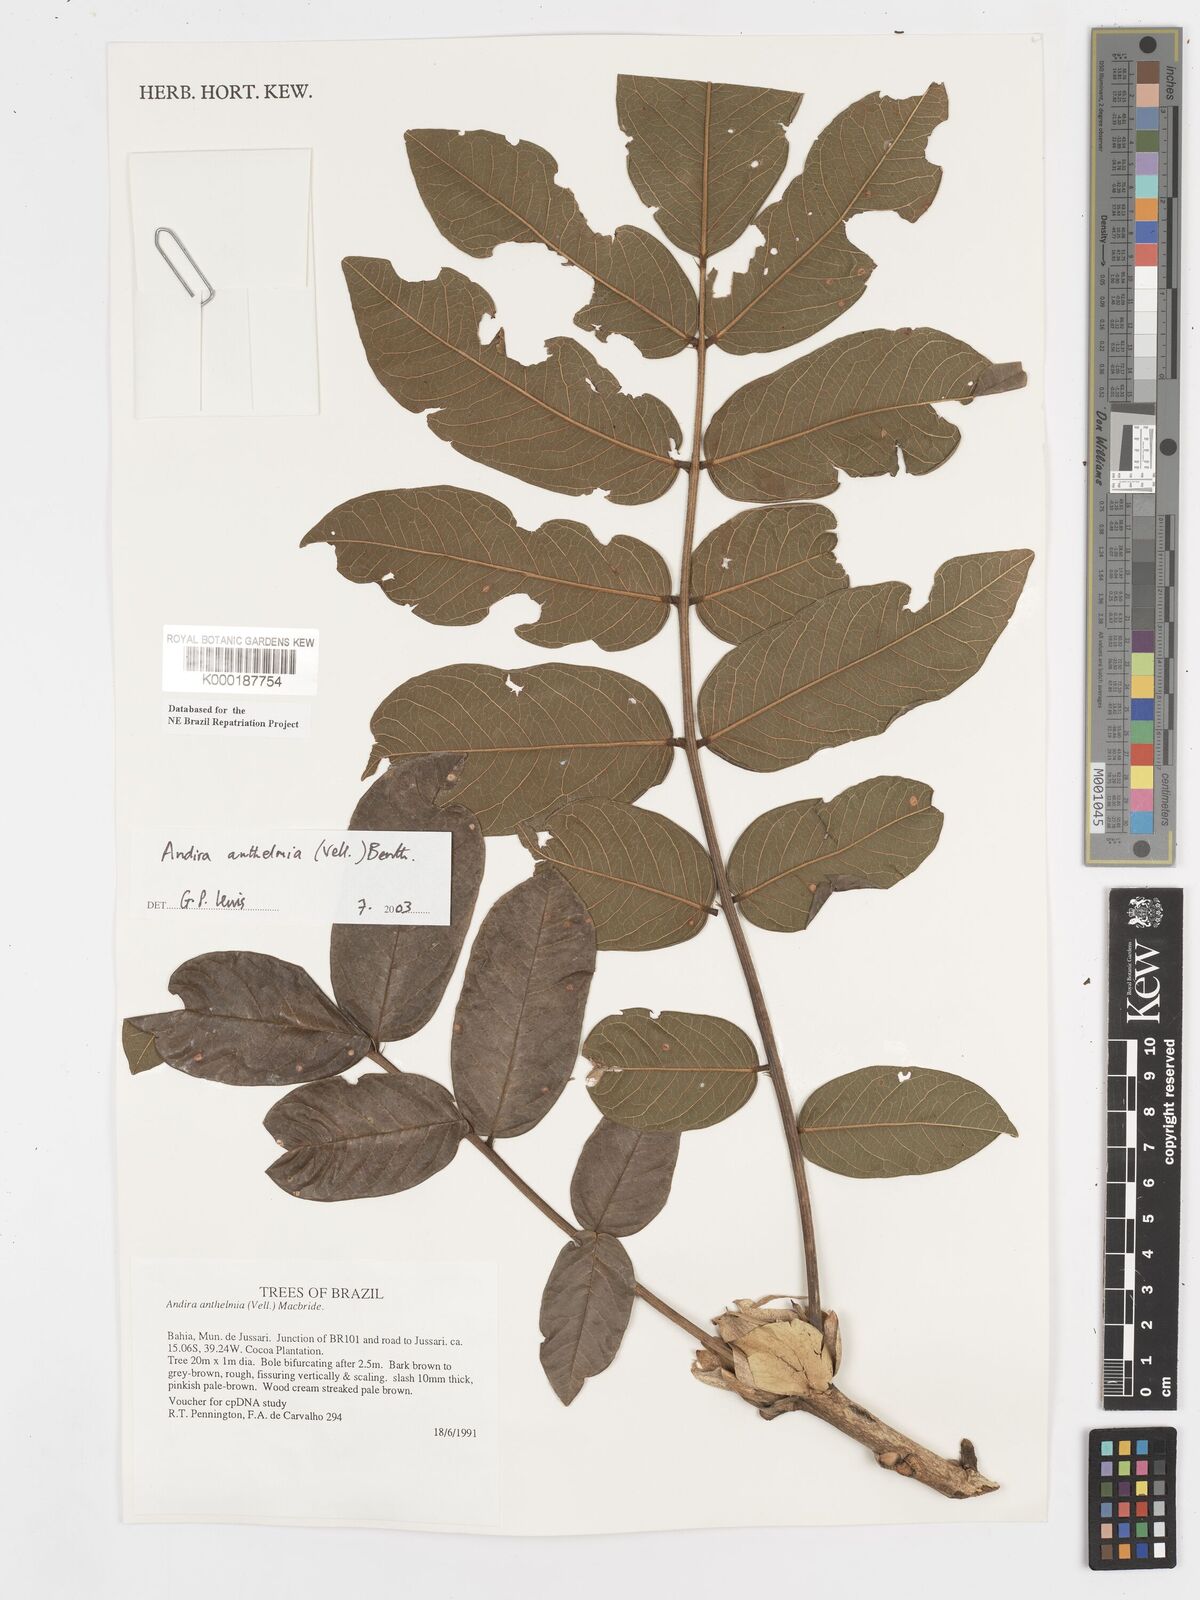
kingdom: Plantae
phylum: Tracheophyta
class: Magnoliopsida
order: Fabales
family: Fabaceae
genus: Andira
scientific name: Andira
